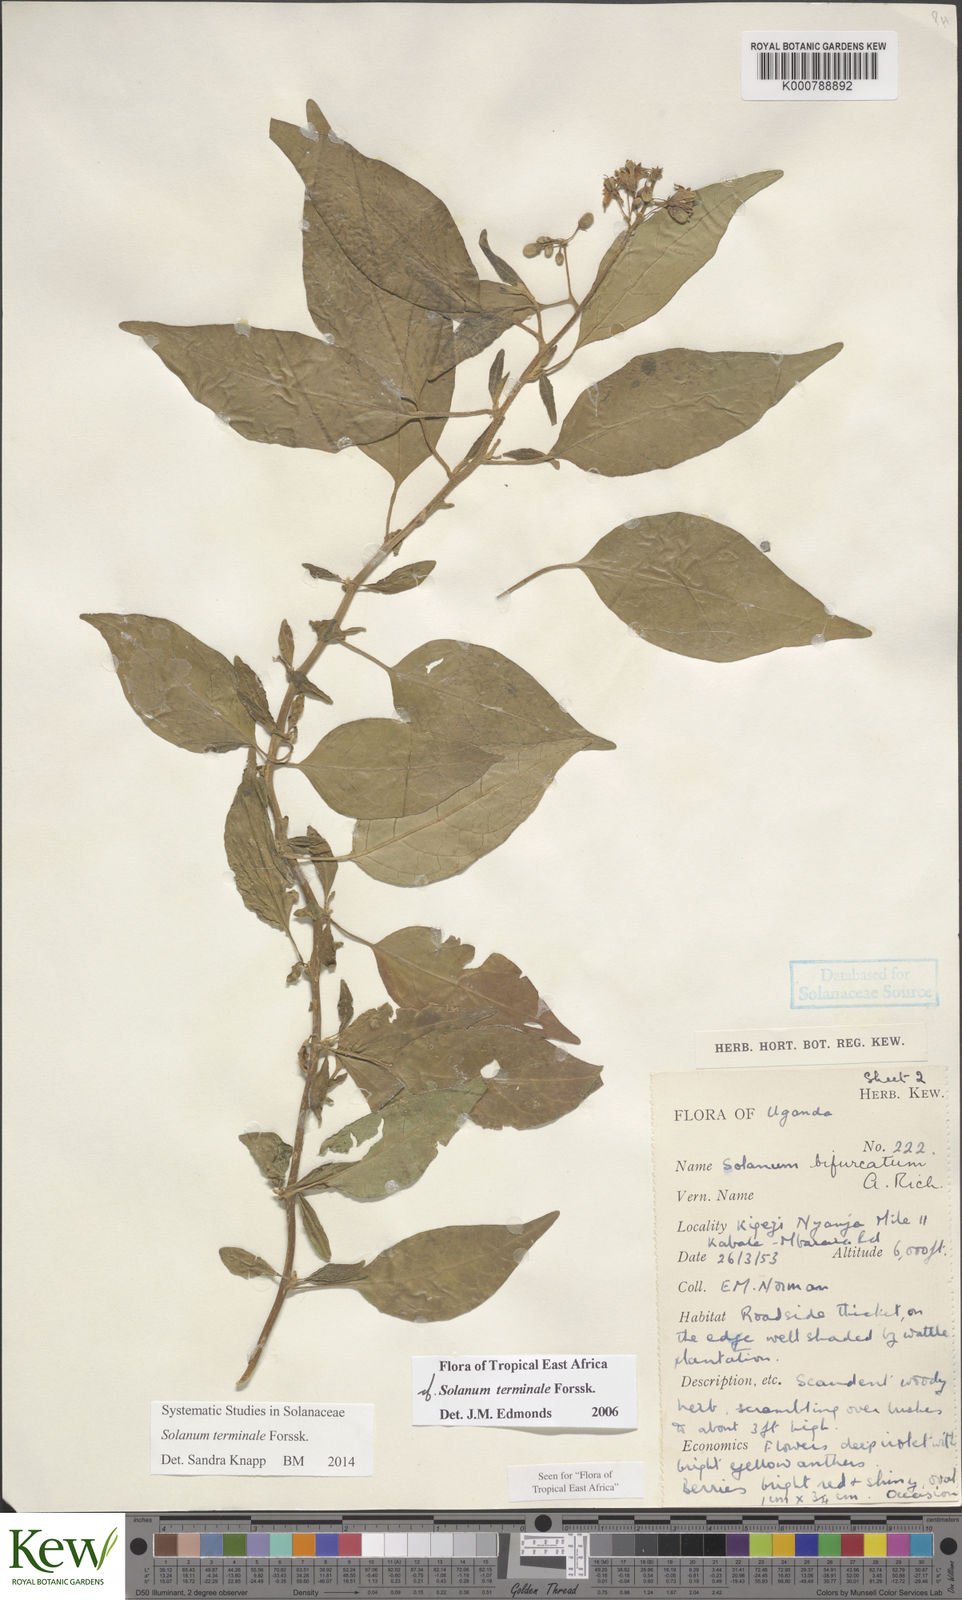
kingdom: Plantae
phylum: Tracheophyta
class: Magnoliopsida
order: Solanales
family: Solanaceae
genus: Solanum
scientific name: Solanum terminale
